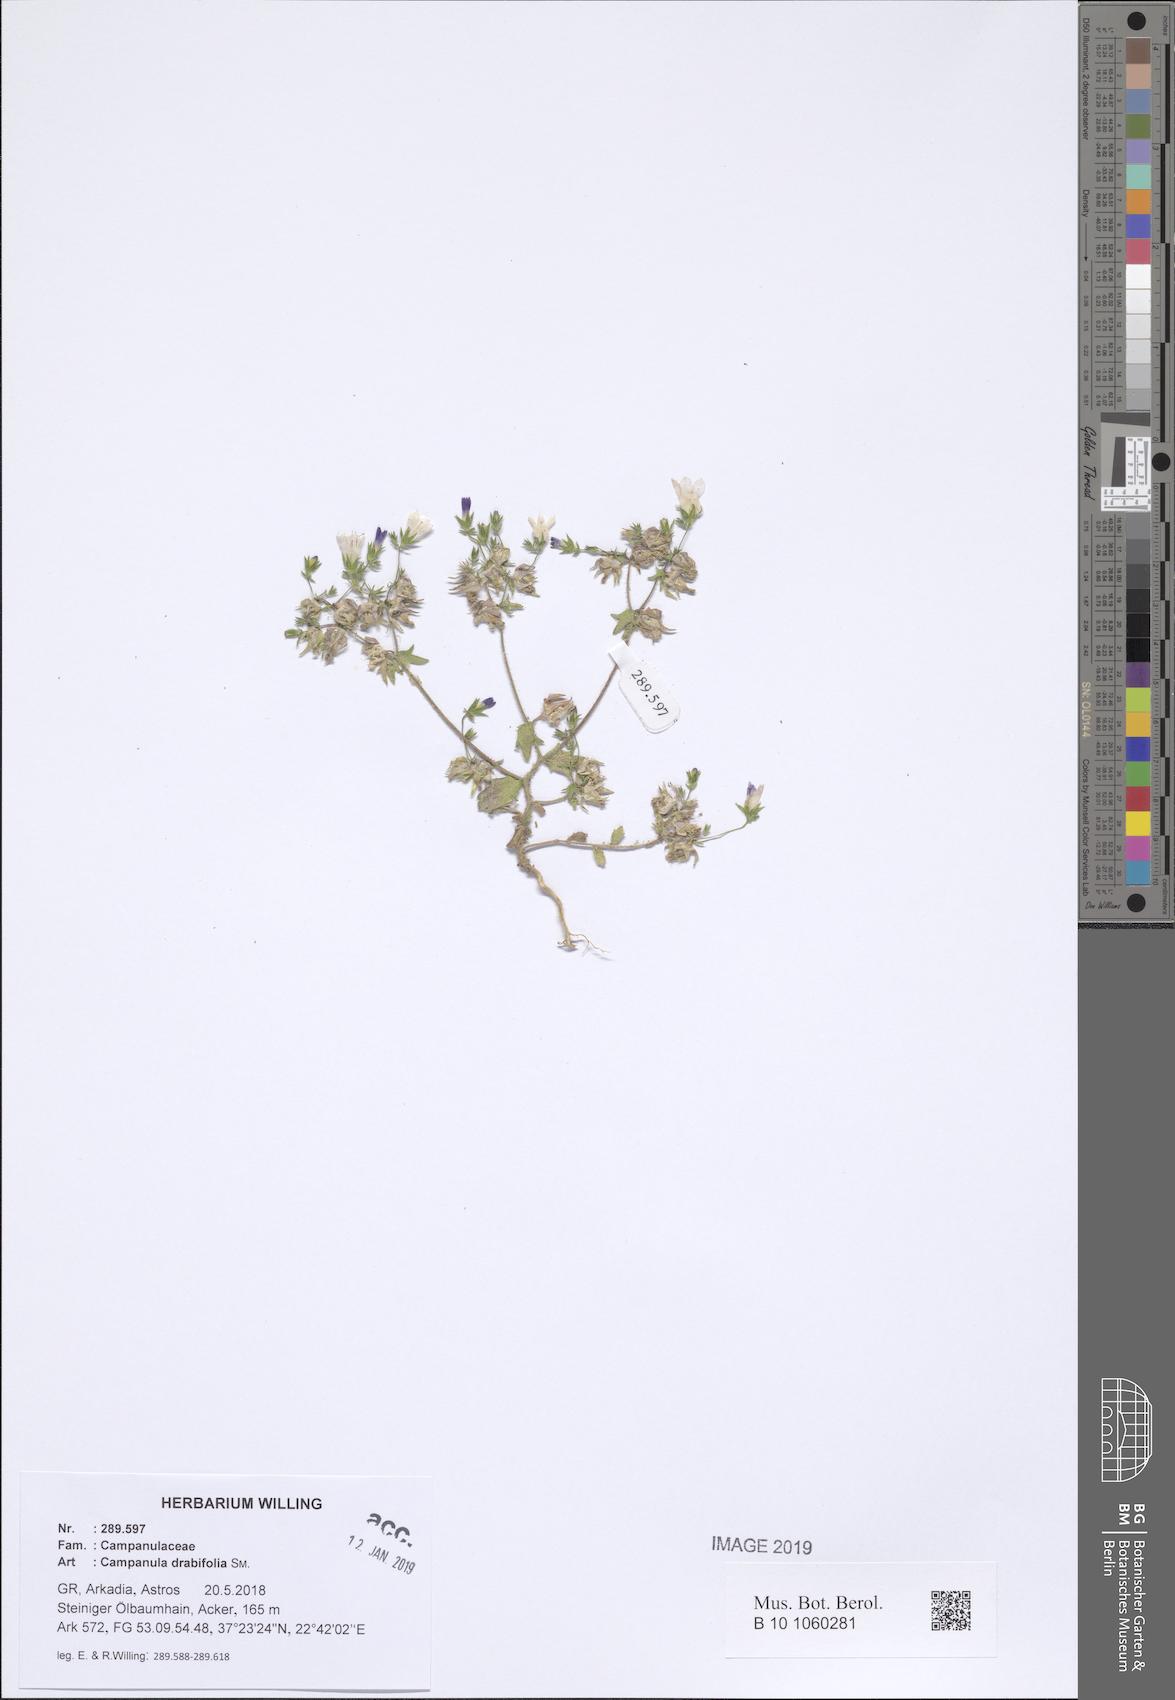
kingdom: Plantae
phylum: Tracheophyta
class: Magnoliopsida
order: Asterales
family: Campanulaceae
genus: Campanula
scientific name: Campanula drabifolia
